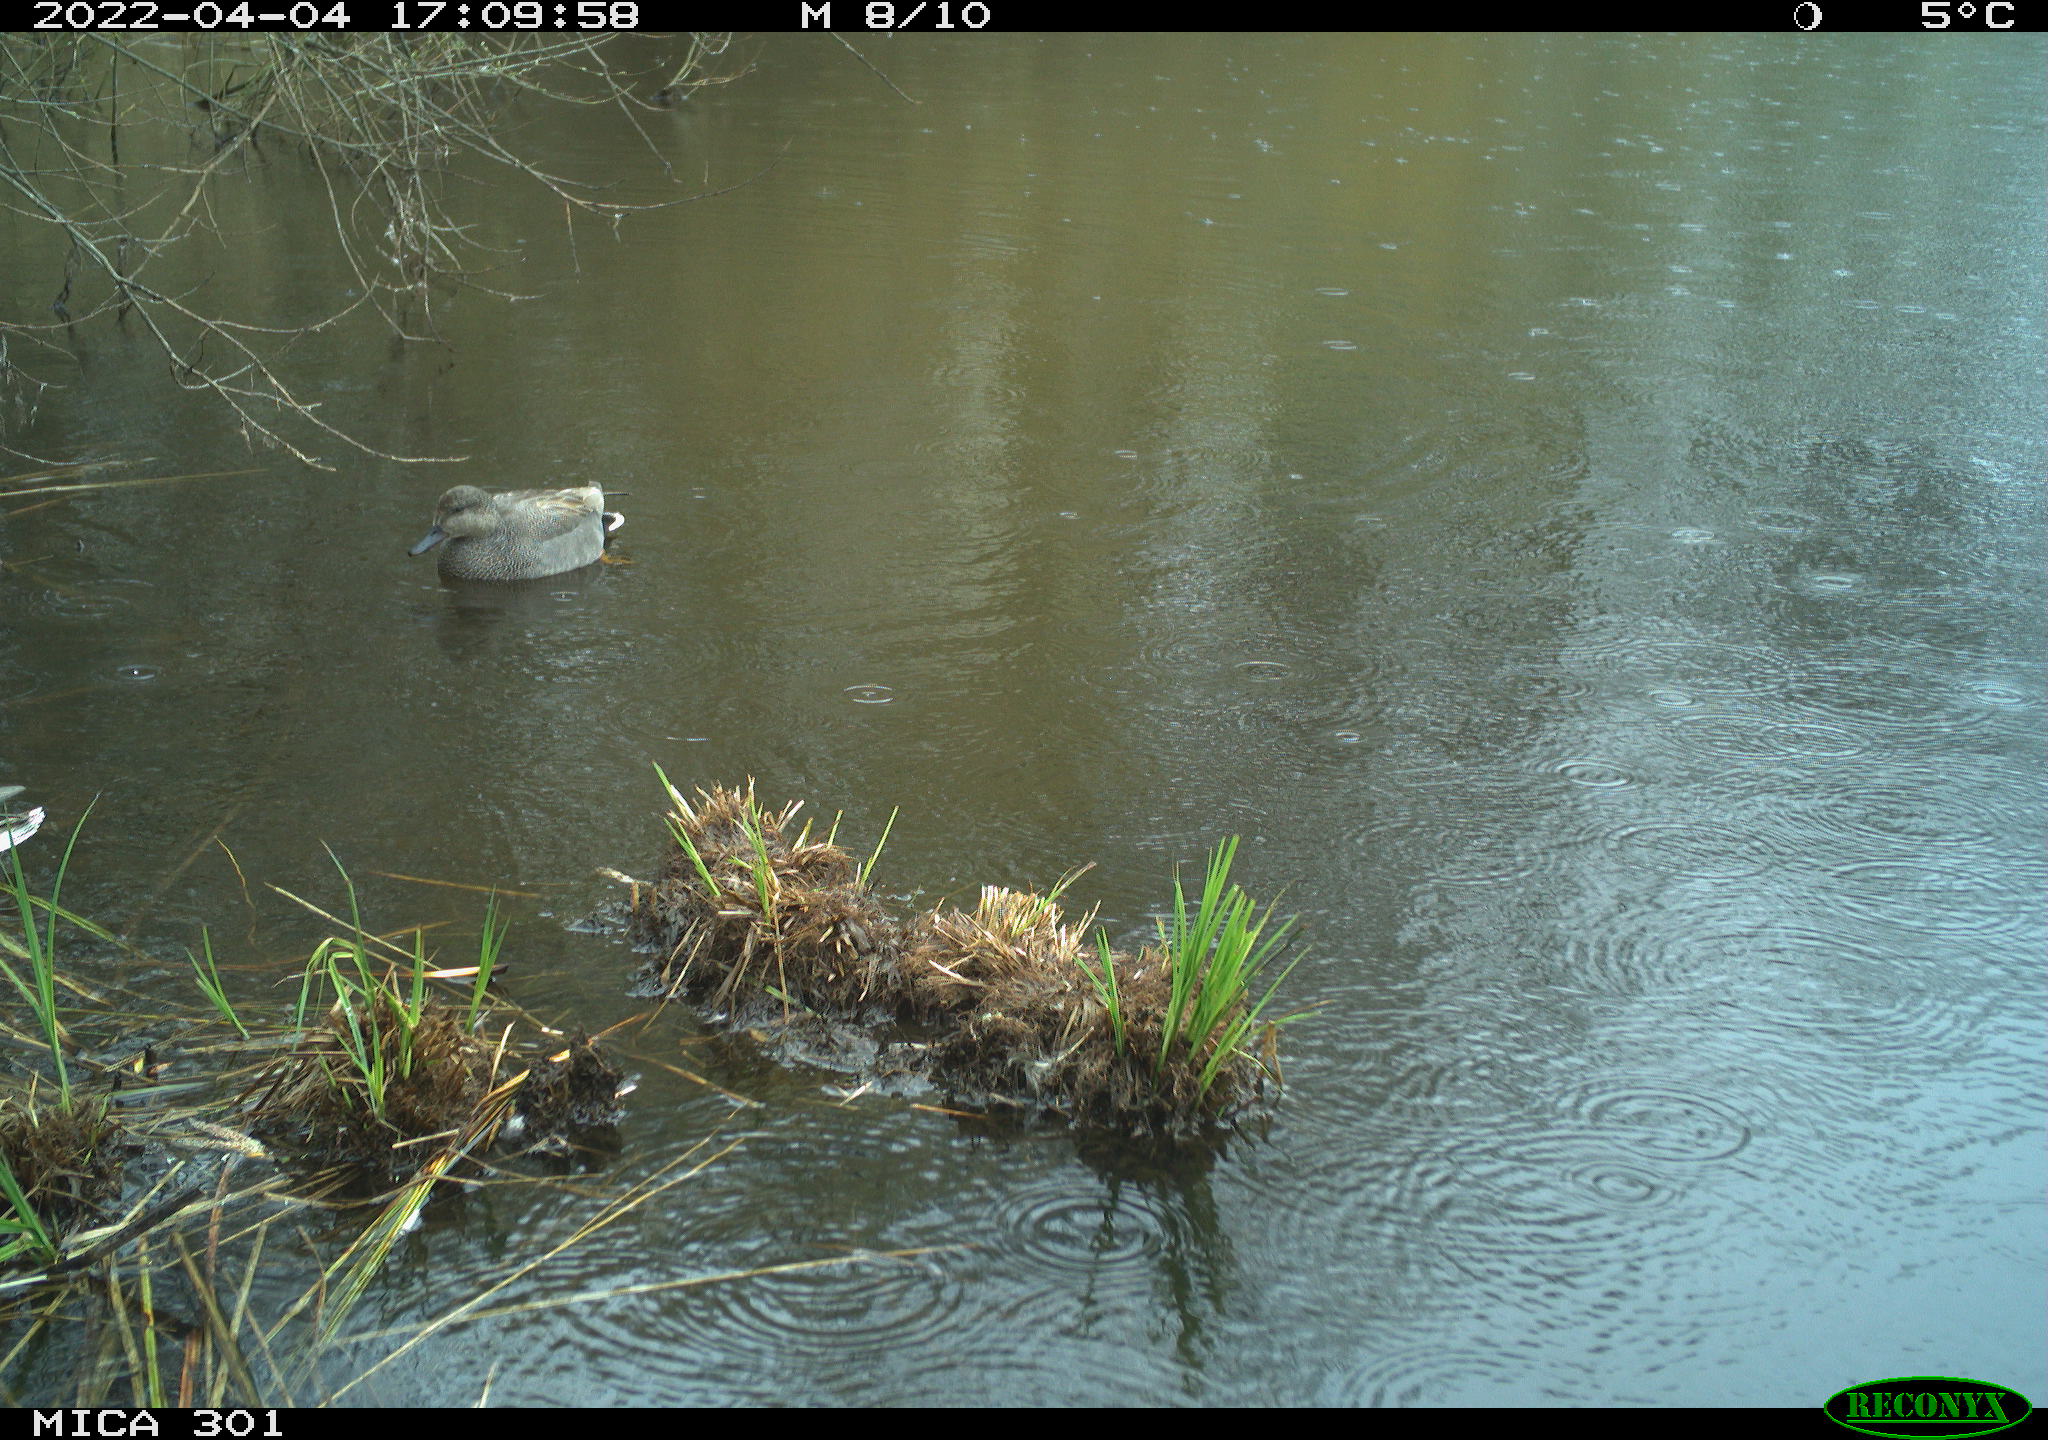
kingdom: Animalia
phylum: Chordata
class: Aves
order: Anseriformes
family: Anatidae
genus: Mareca
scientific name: Mareca strepera
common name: Gadwall
